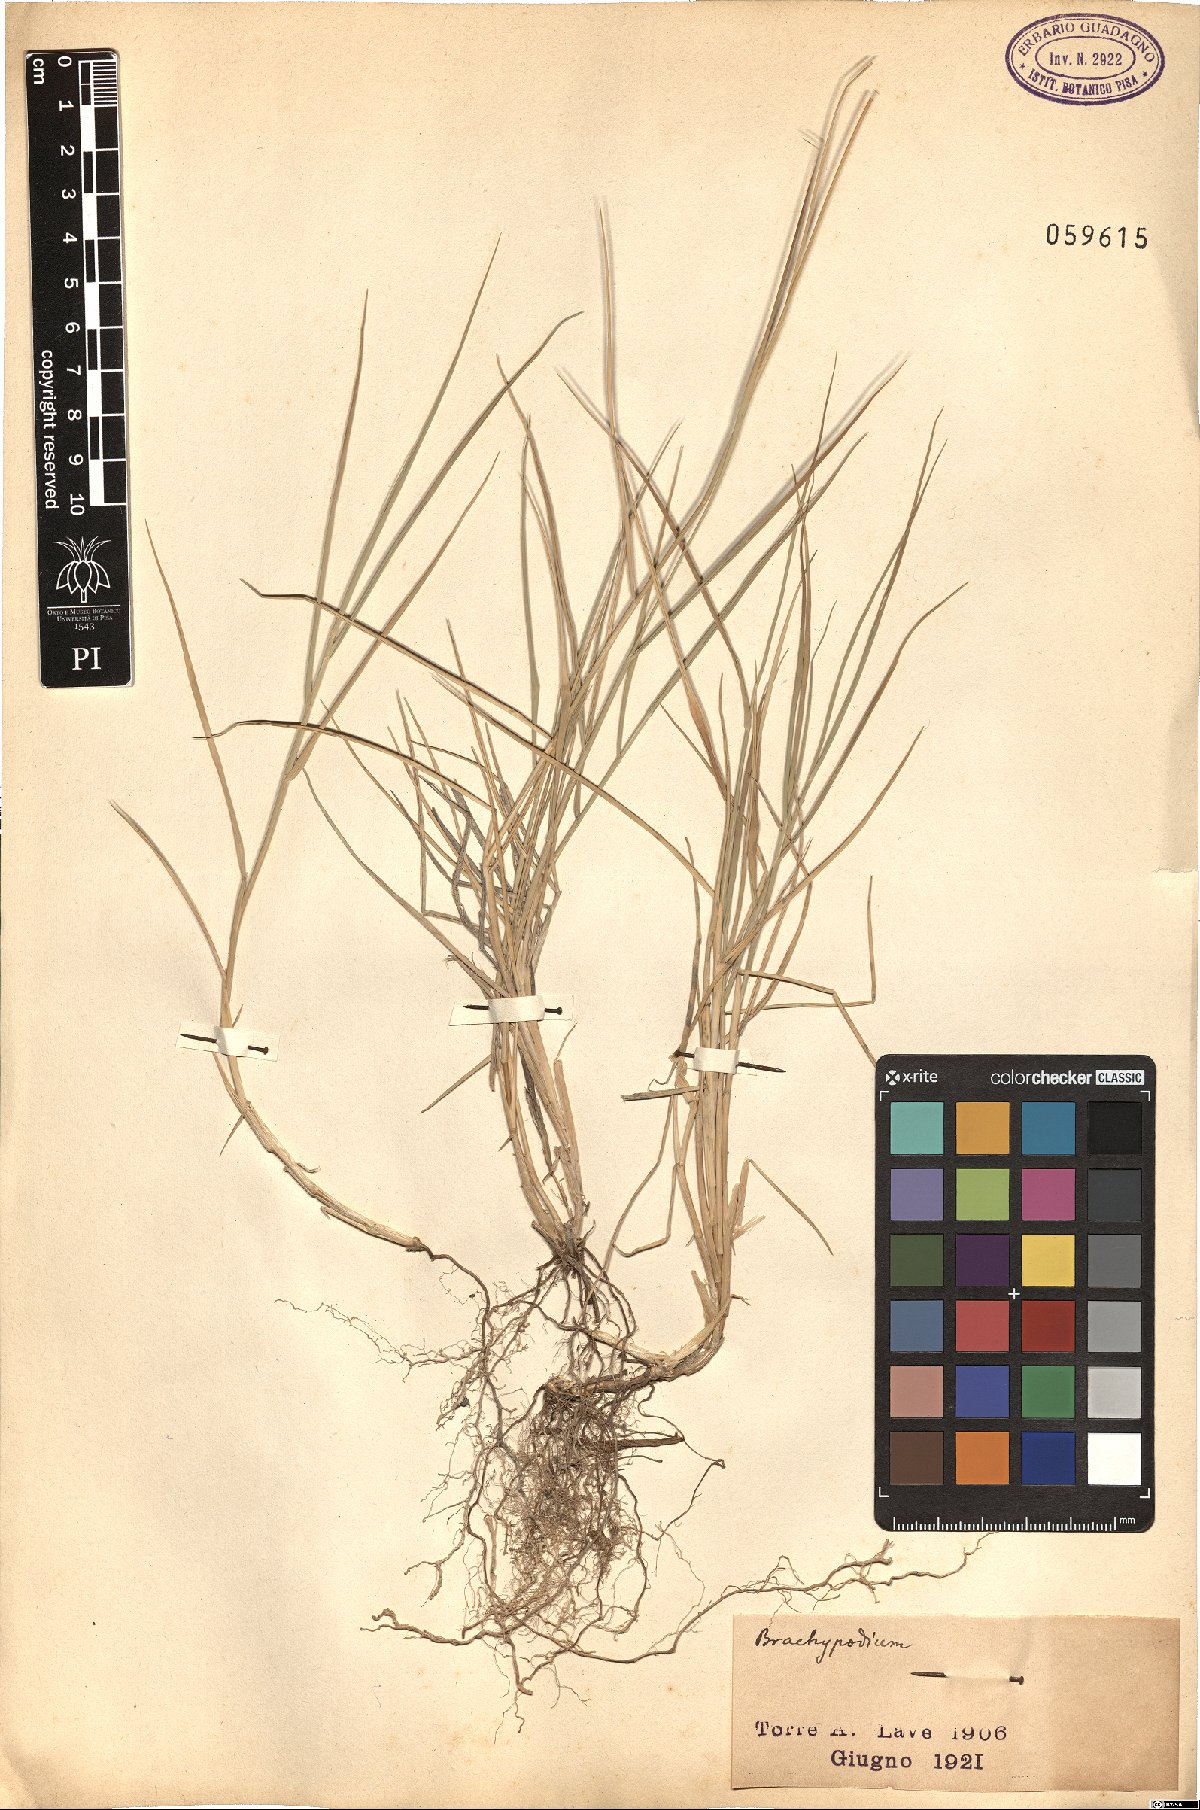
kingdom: Plantae
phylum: Tracheophyta
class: Liliopsida
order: Poales
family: Poaceae
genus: Brachypodium
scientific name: Brachypodium
